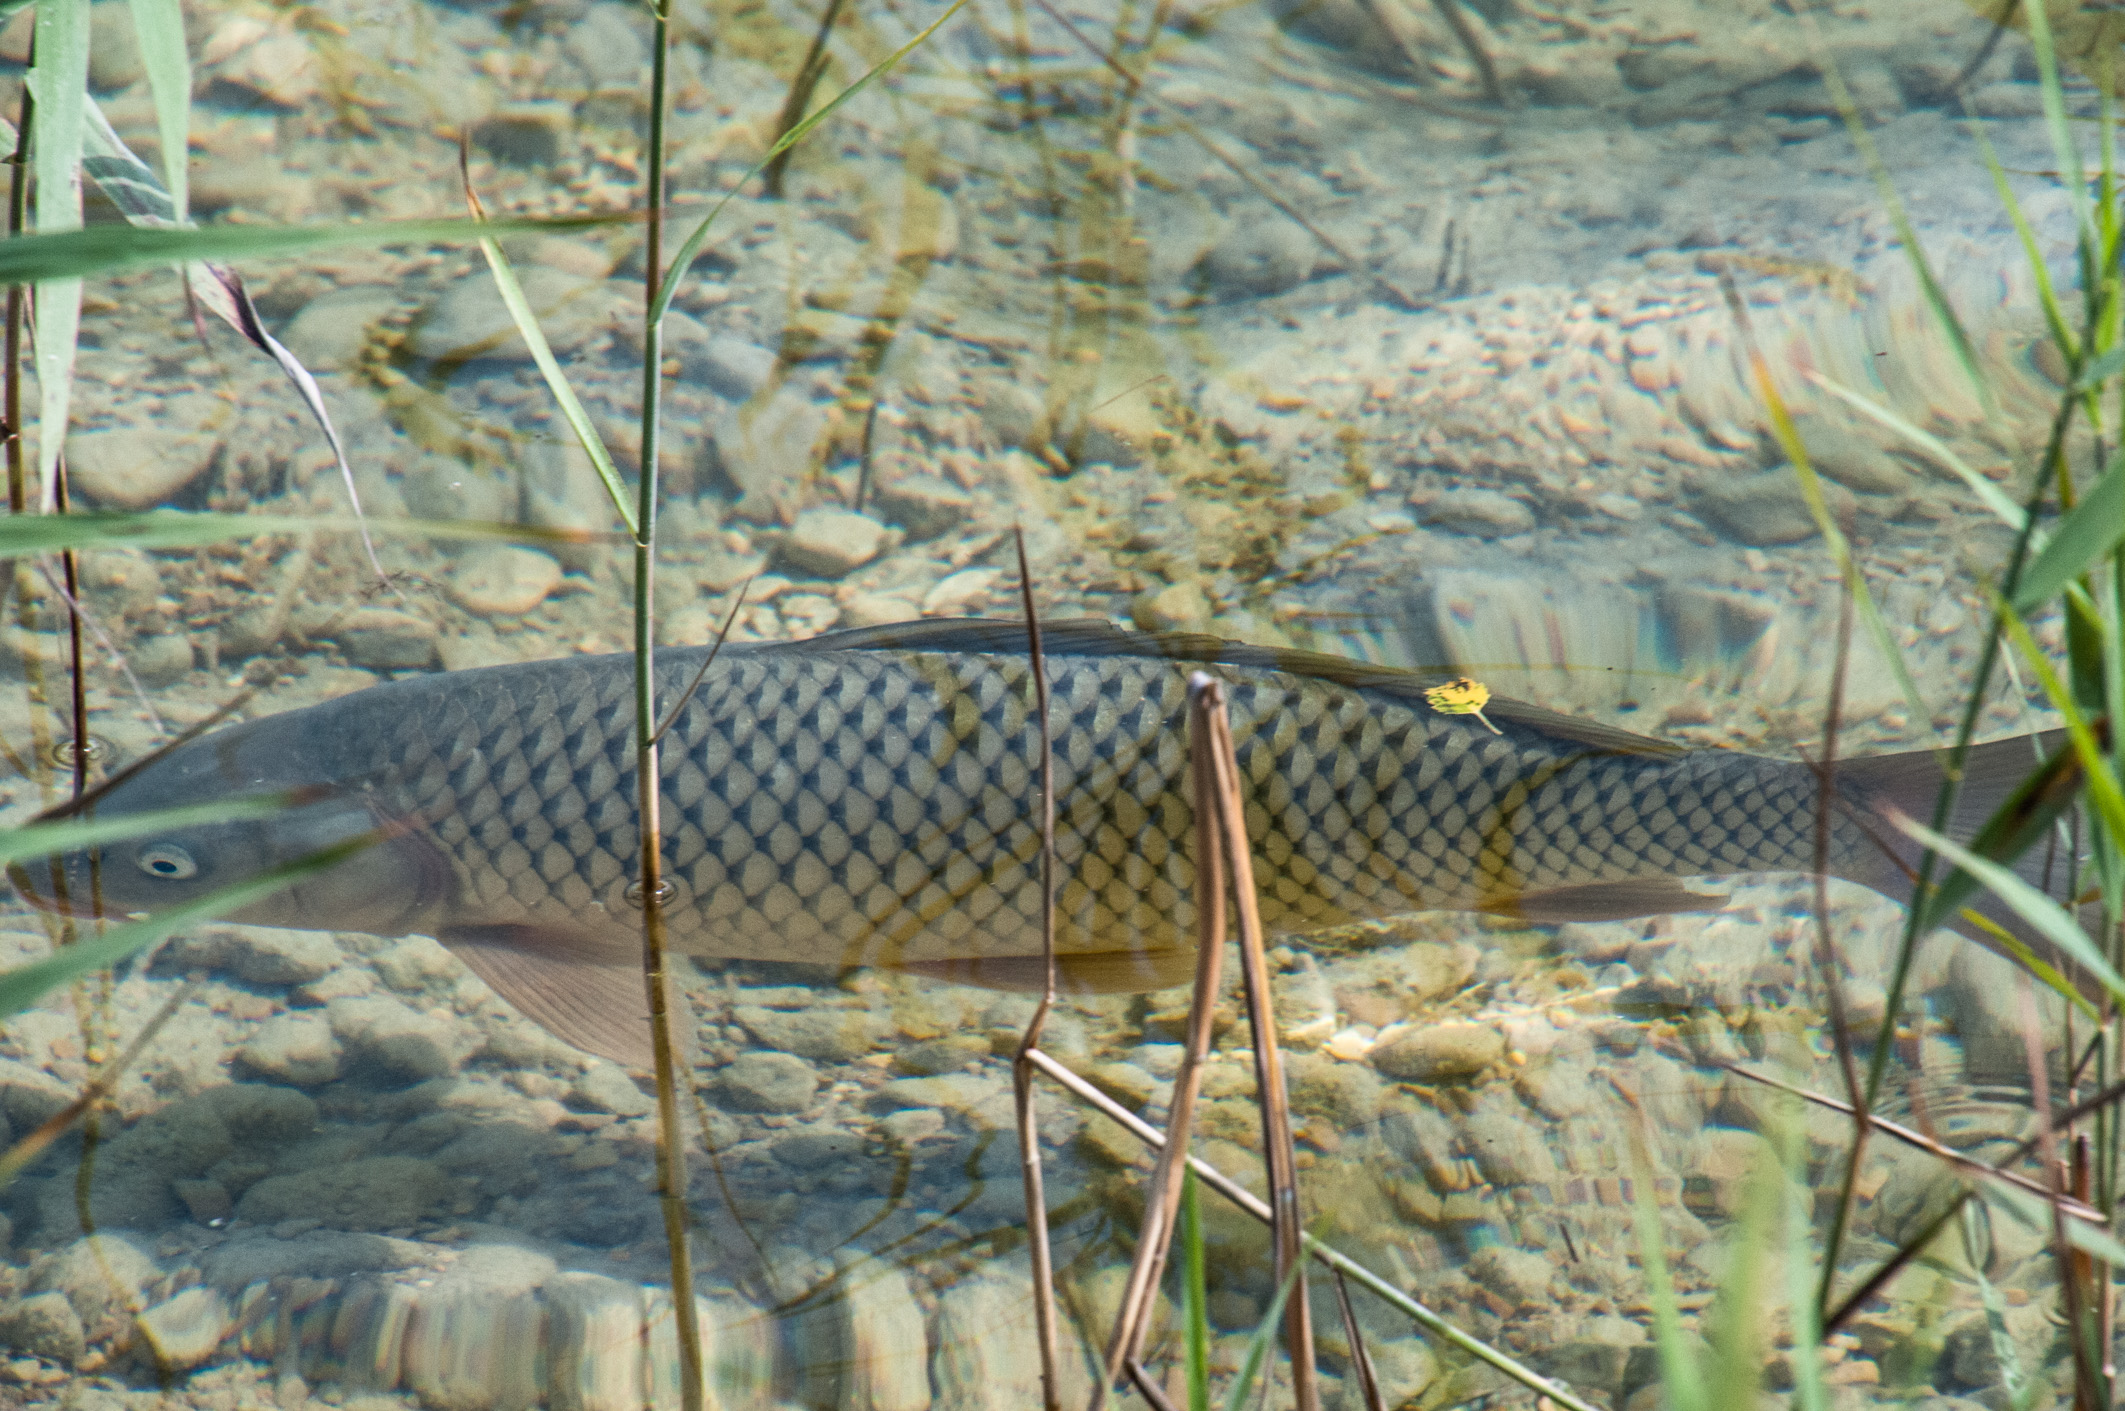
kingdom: Animalia
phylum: Chordata
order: Cypriniformes
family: Cyprinidae
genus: Cyprinus
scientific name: Cyprinus carpio
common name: Common carp
